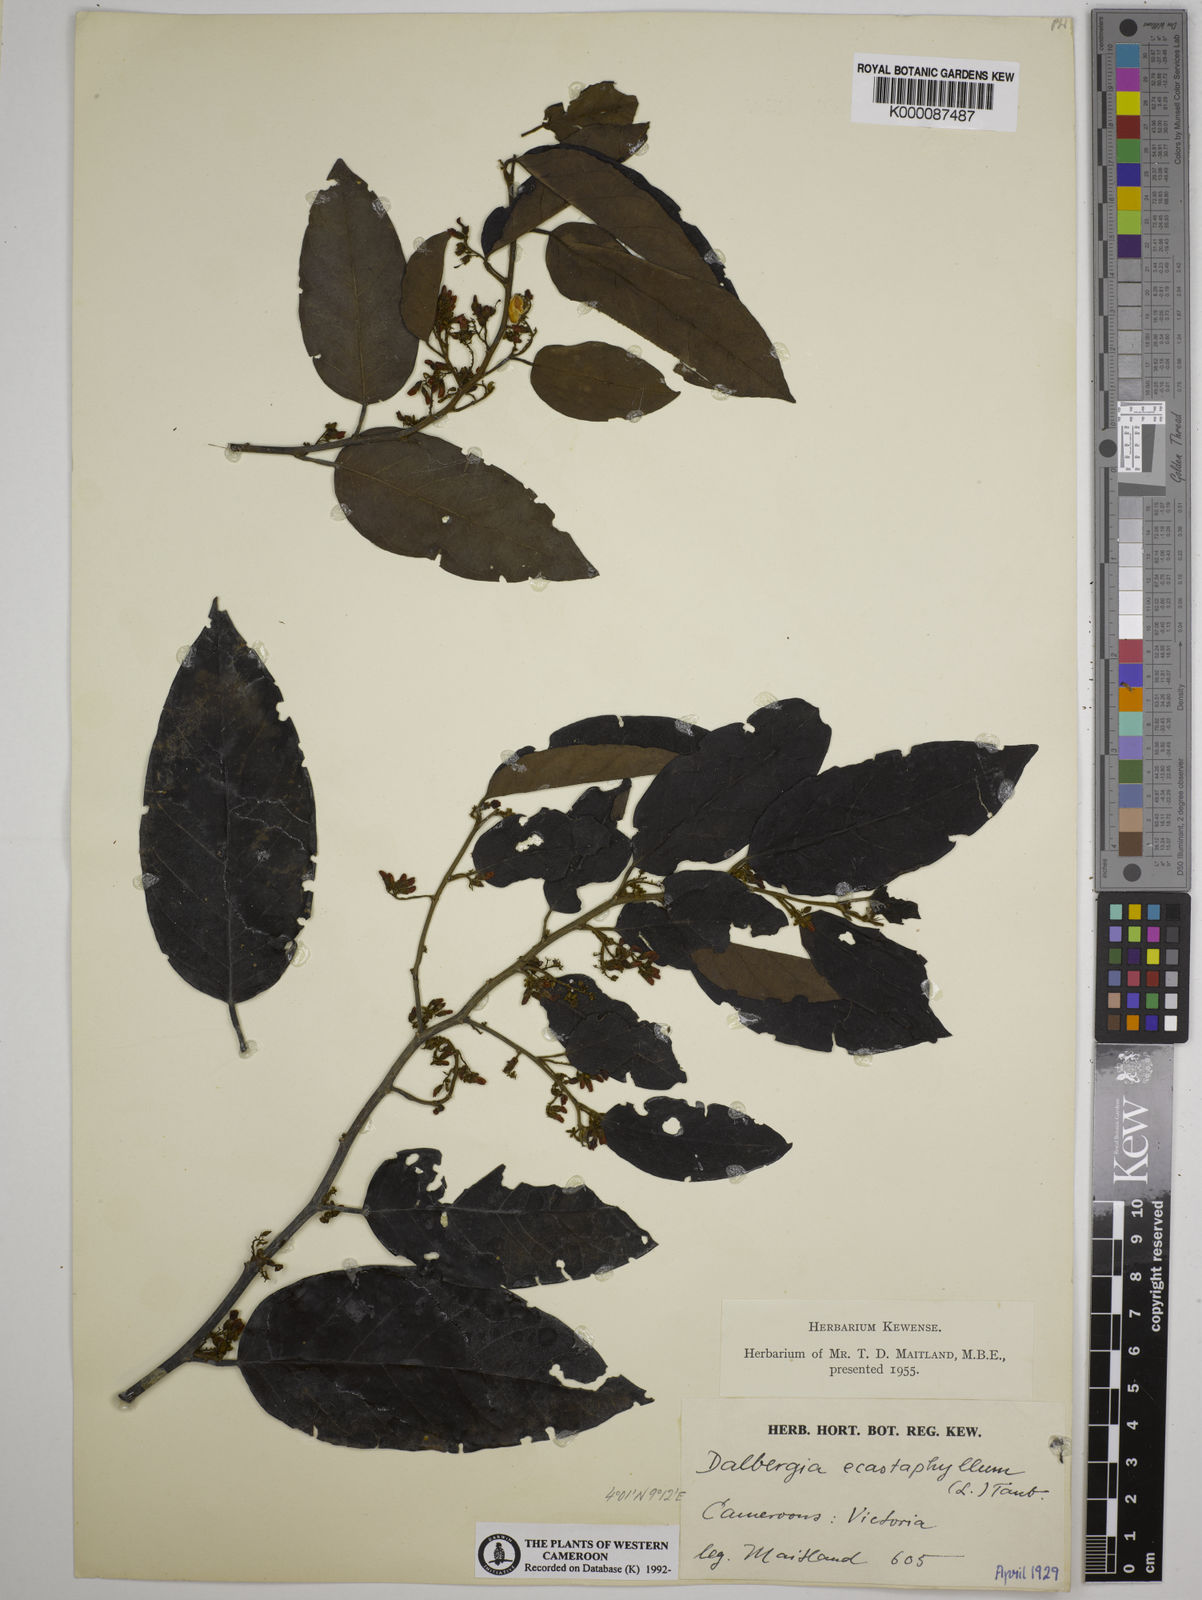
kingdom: Plantae
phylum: Tracheophyta
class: Magnoliopsida
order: Fabales
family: Fabaceae
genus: Dalbergia
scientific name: Dalbergia ecastaphyllum
